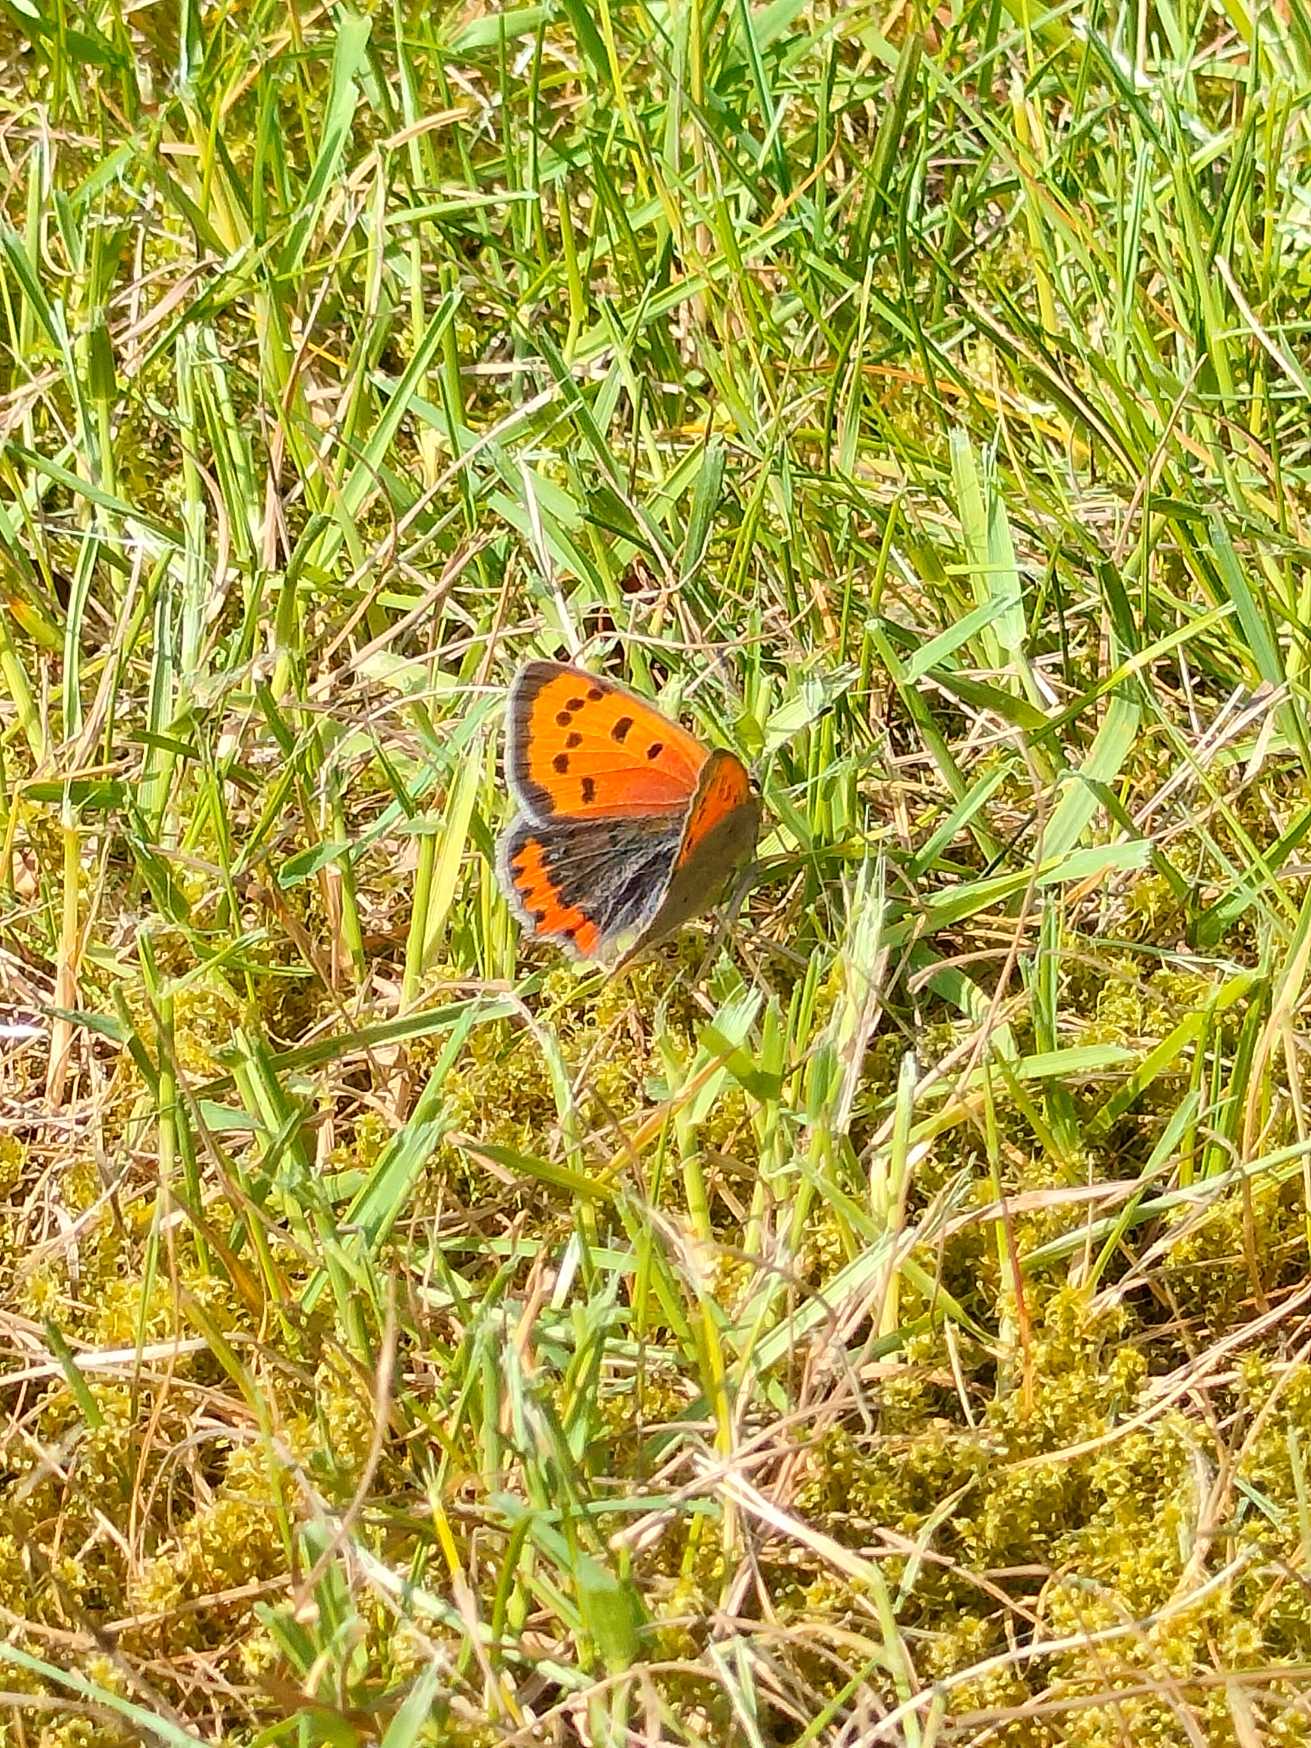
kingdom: Animalia
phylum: Arthropoda
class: Insecta
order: Lepidoptera
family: Lycaenidae
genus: Lycaena
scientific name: Lycaena phlaeas
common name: Lille ildfugl
